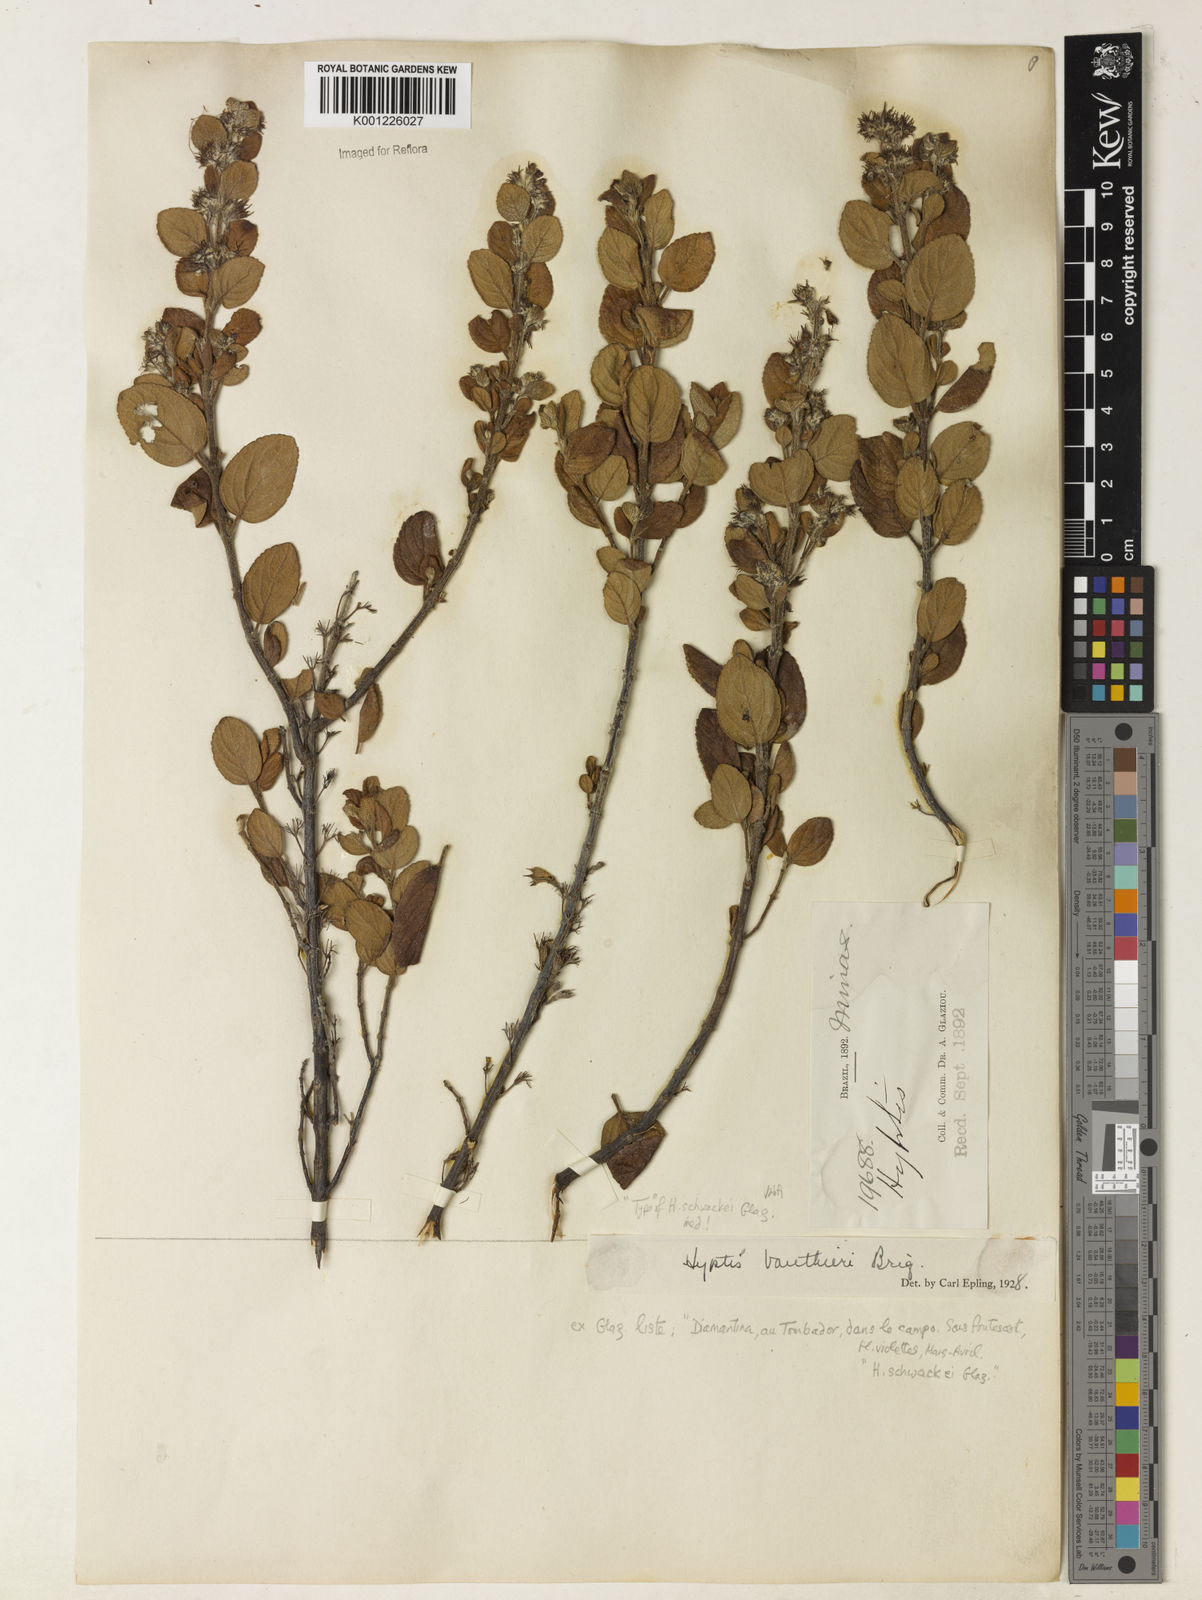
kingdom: Plantae
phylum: Tracheophyta
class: Magnoliopsida
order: Lamiales
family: Lamiaceae
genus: Hyptidendron
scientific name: Hyptidendron vauthieri
